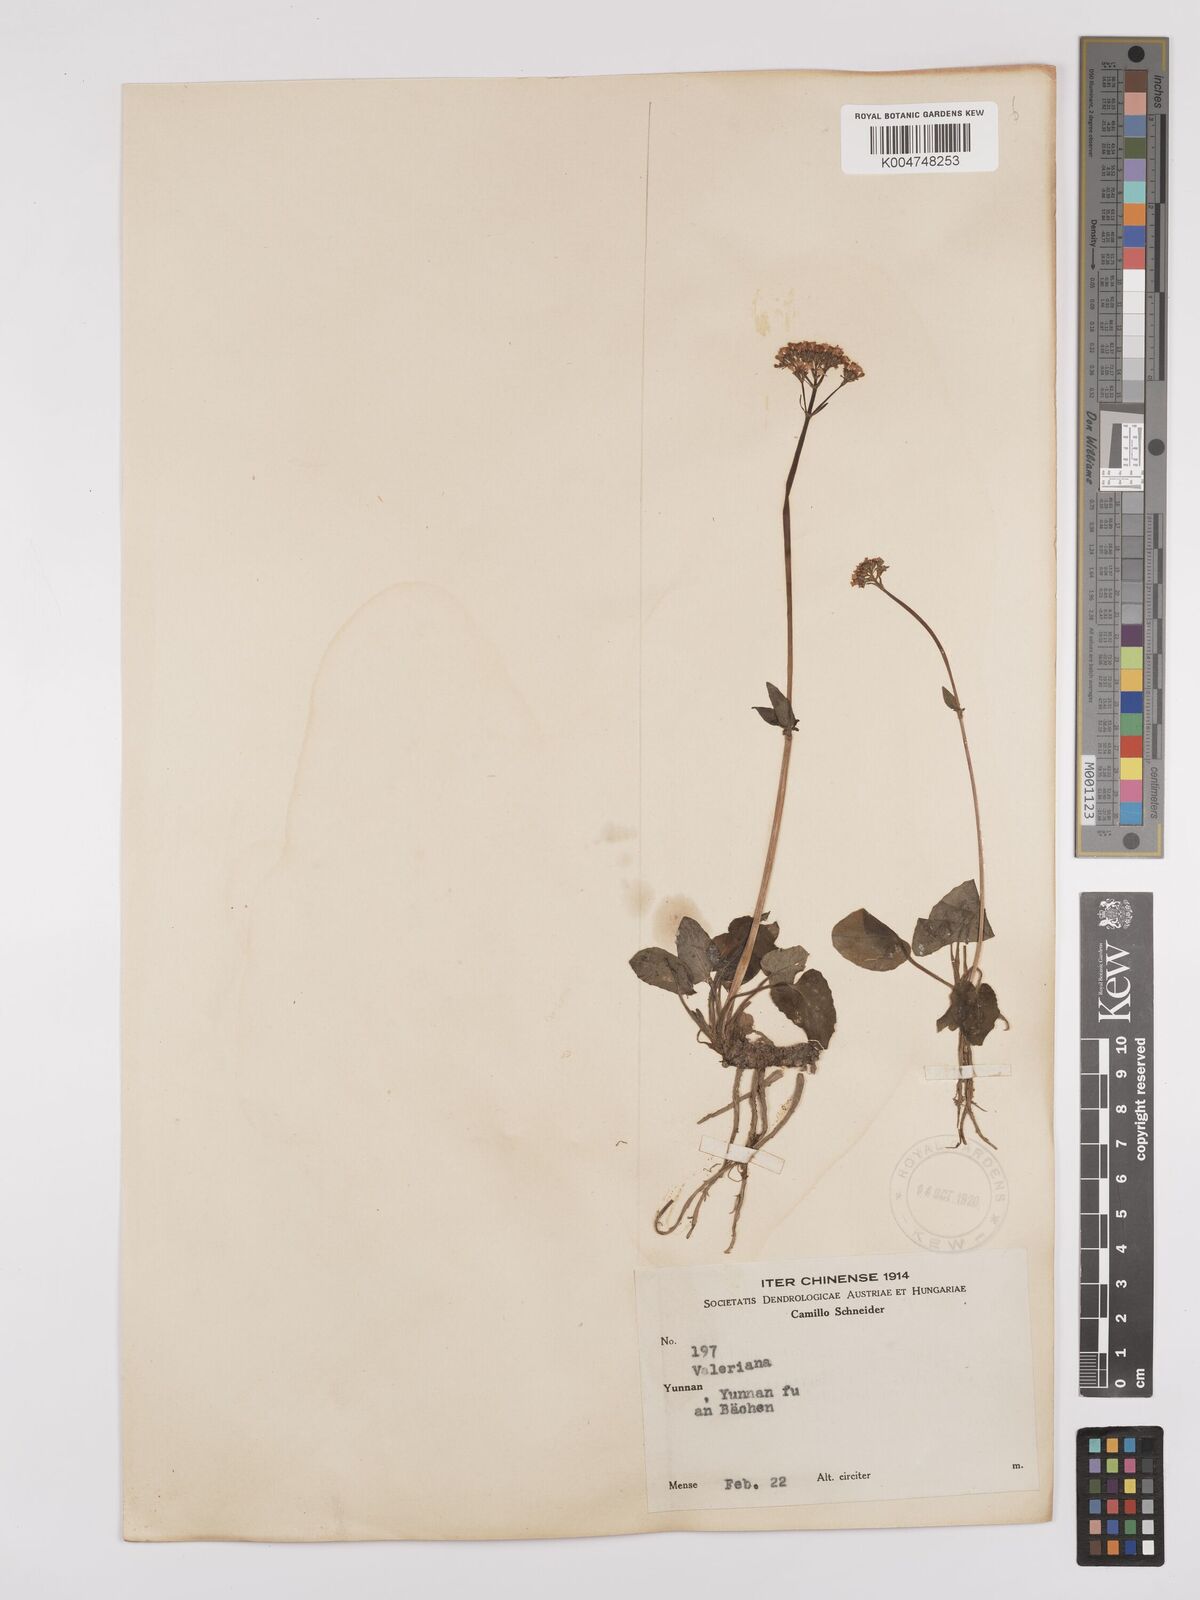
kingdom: Plantae
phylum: Tracheophyta
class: Magnoliopsida
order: Dipsacales
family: Caprifoliaceae
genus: Valeriana
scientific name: Valeriana
